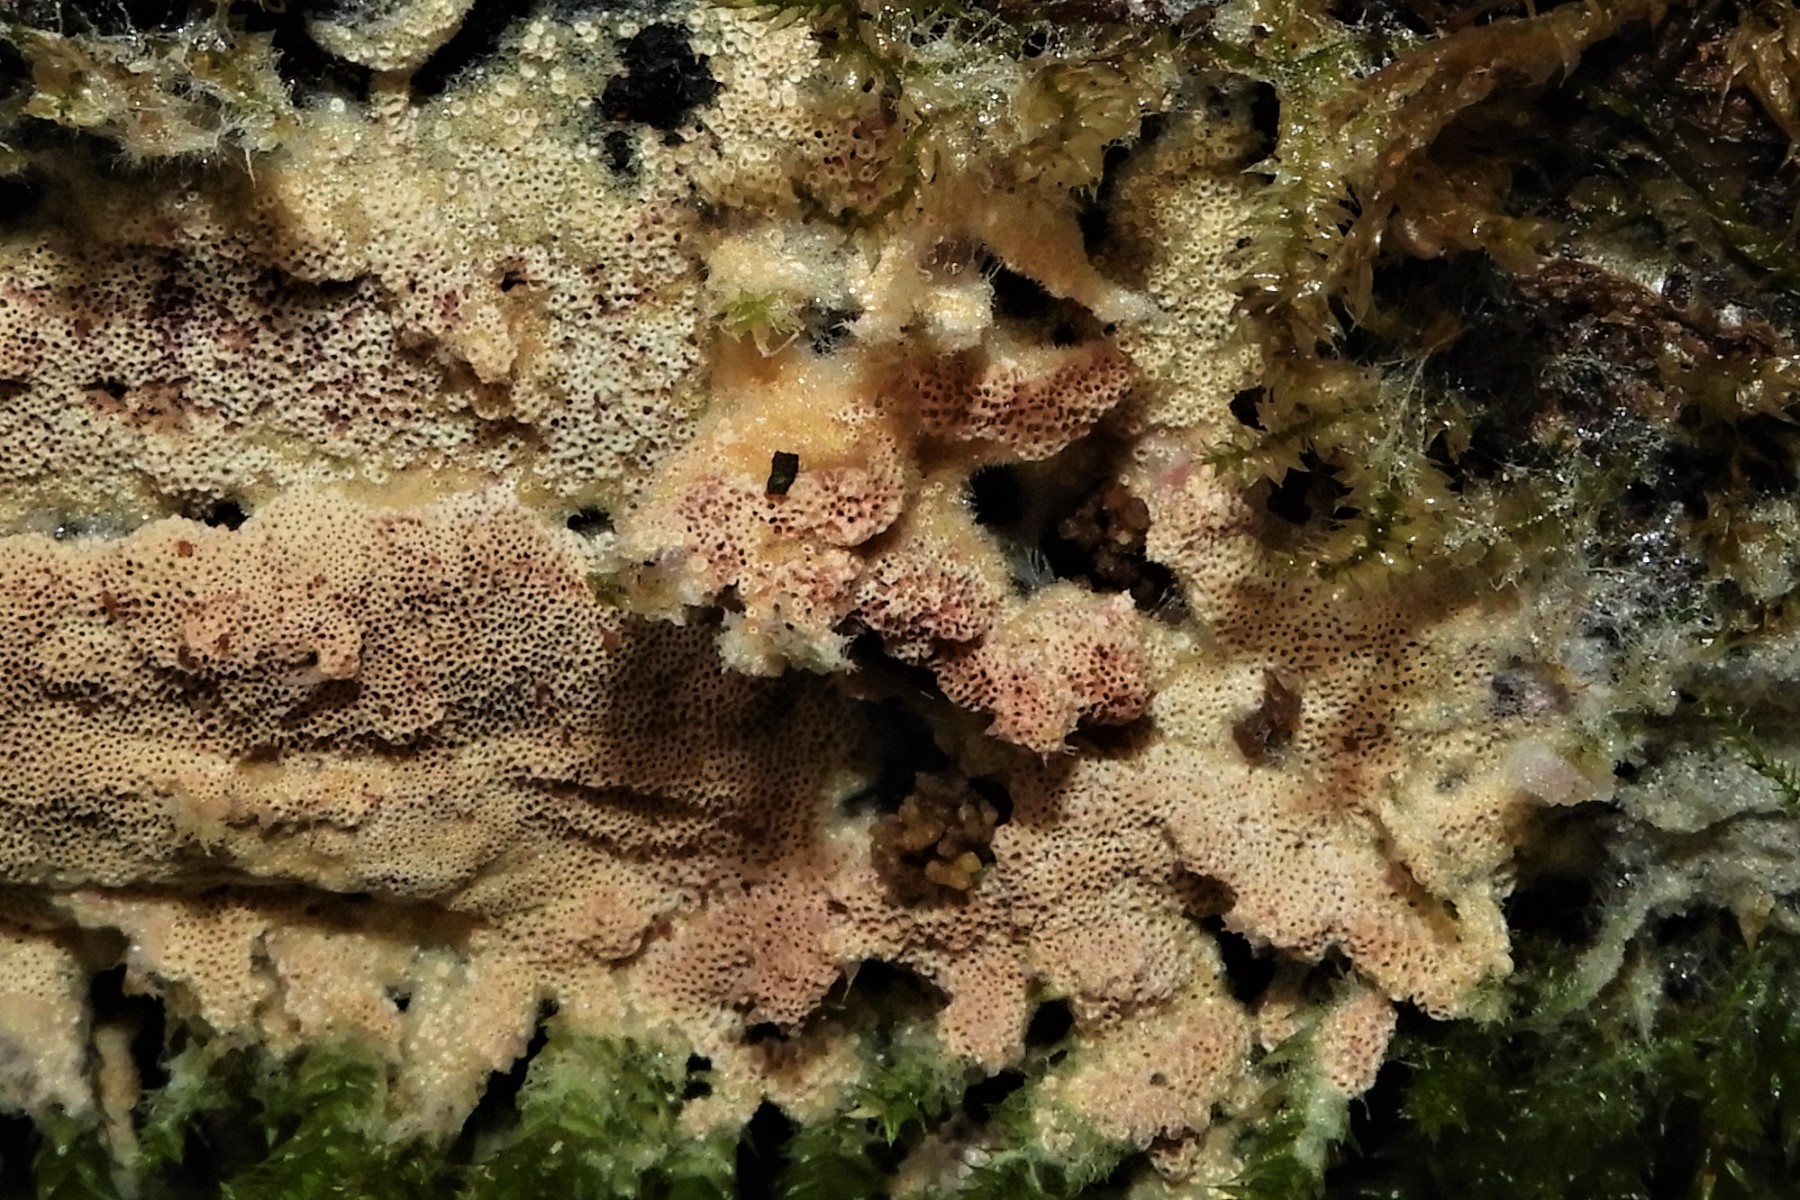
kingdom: Fungi
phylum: Basidiomycota
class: Agaricomycetes
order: Polyporales
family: Irpicaceae
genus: Ceriporia
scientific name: Ceriporia
